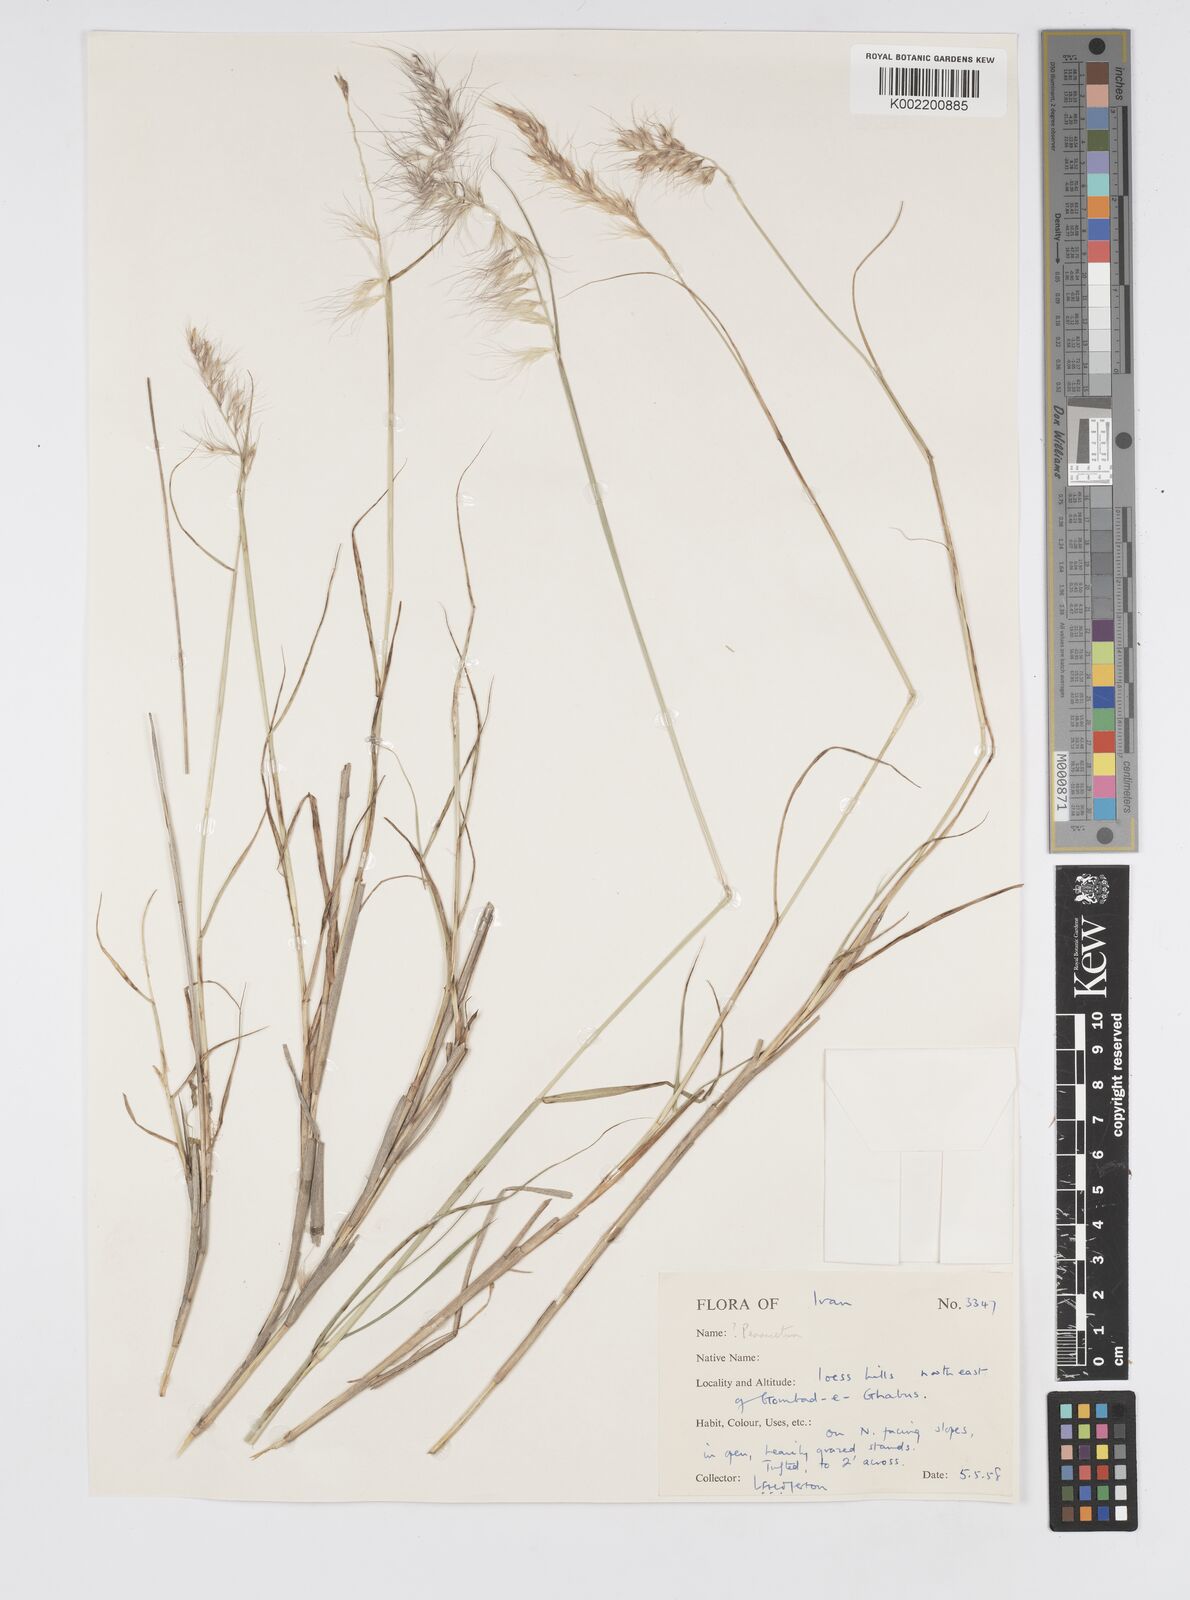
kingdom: Plantae
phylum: Tracheophyta
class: Liliopsida
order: Poales
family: Poaceae
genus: Cenchrus
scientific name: Cenchrus orientalis
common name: Oriental fountain grass
